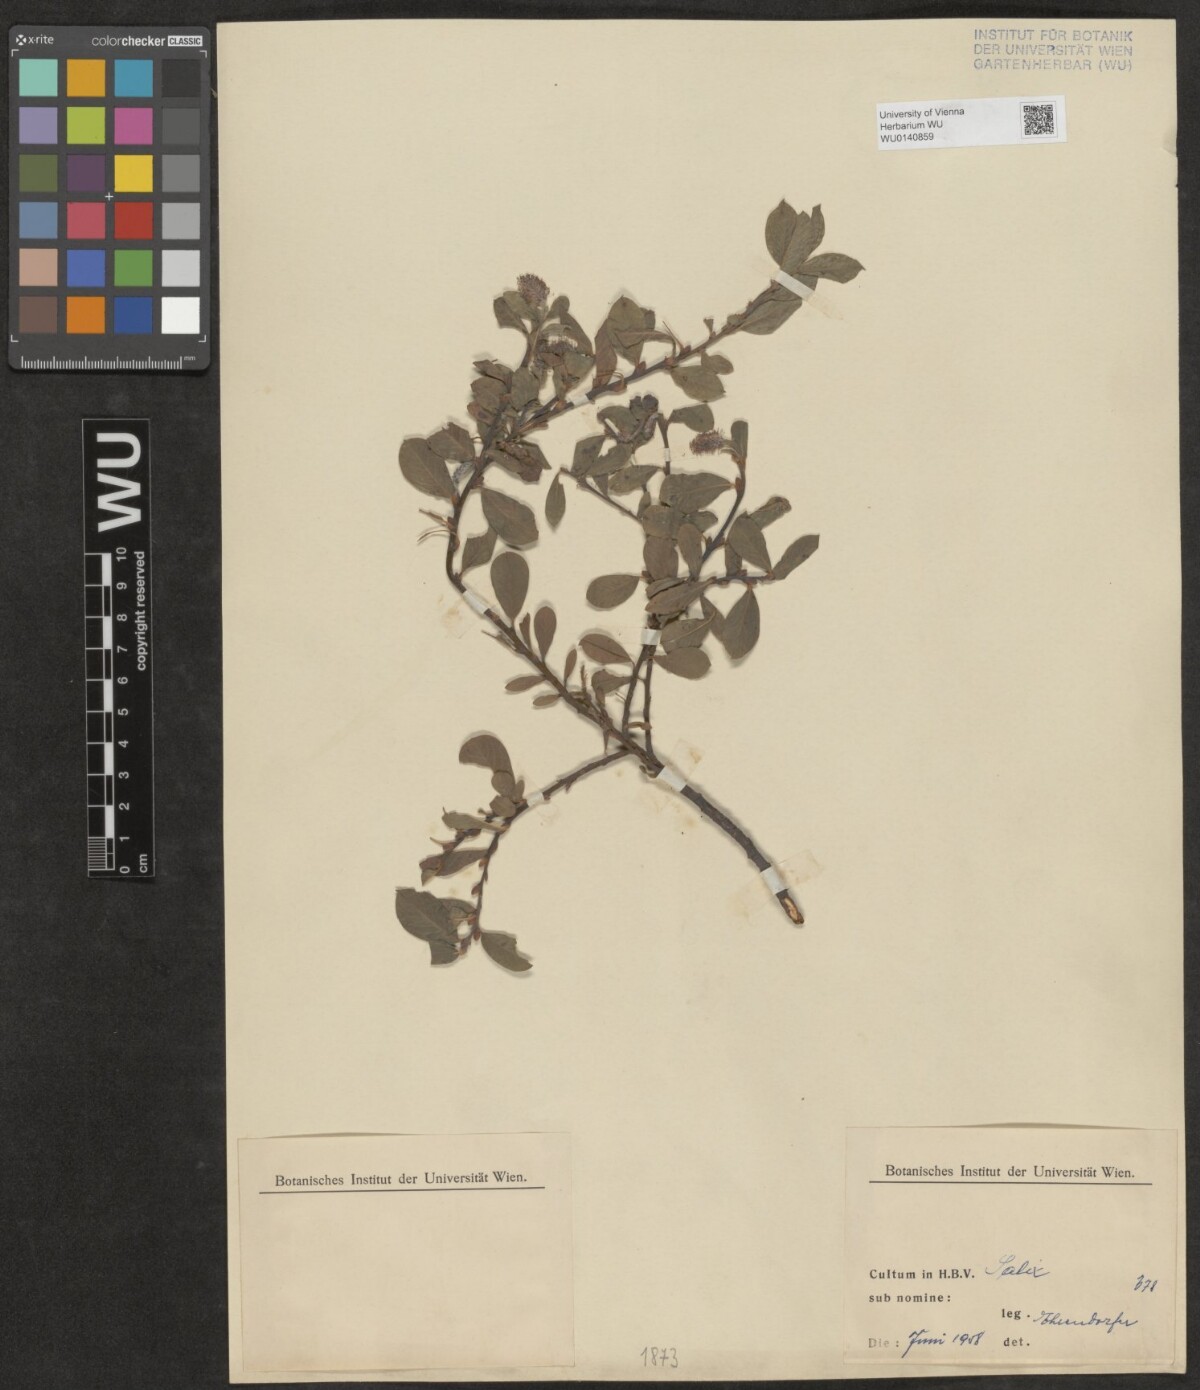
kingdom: Plantae
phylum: Tracheophyta
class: Magnoliopsida
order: Malpighiales
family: Salicaceae
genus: Salix
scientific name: Salix
